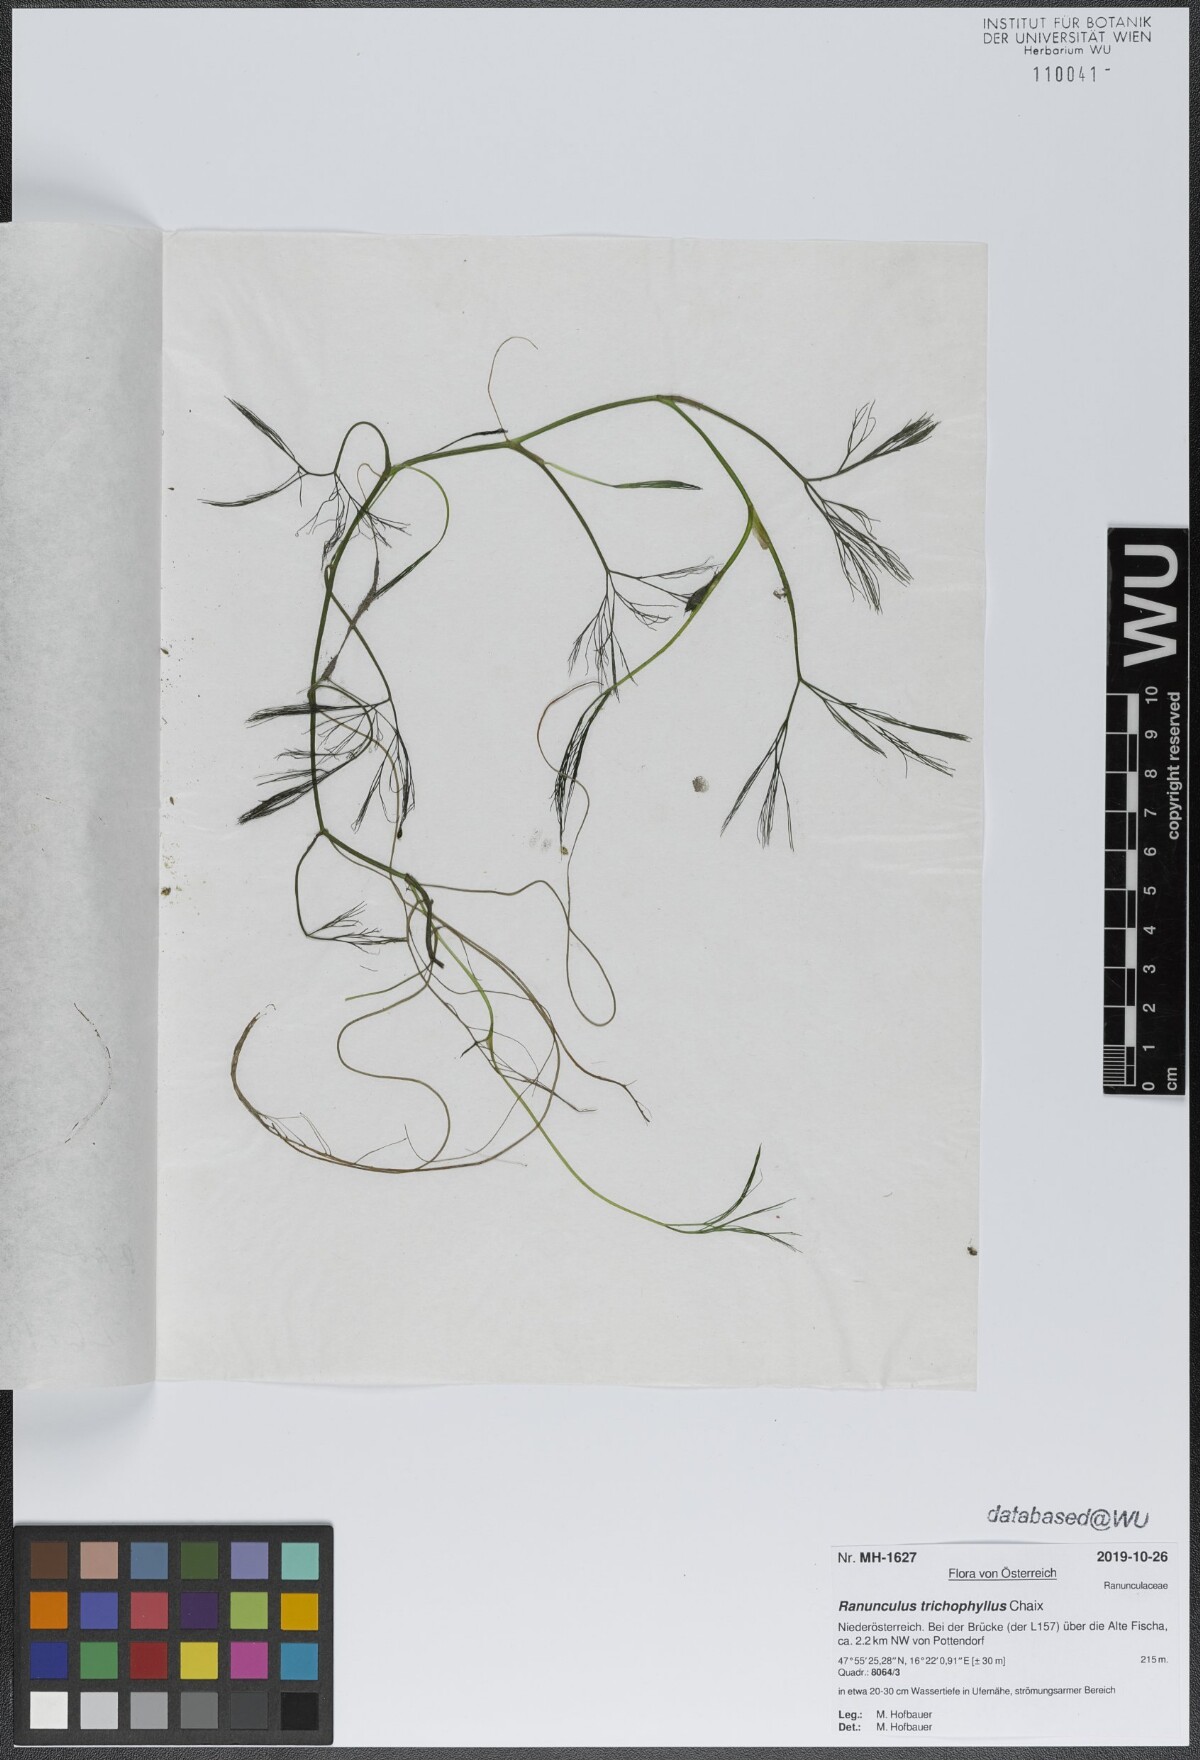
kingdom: Plantae
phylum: Tracheophyta
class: Magnoliopsida
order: Ranunculales
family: Ranunculaceae
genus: Ranunculus
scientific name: Ranunculus trichophyllus
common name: Thread-leaved water-crowfoot
